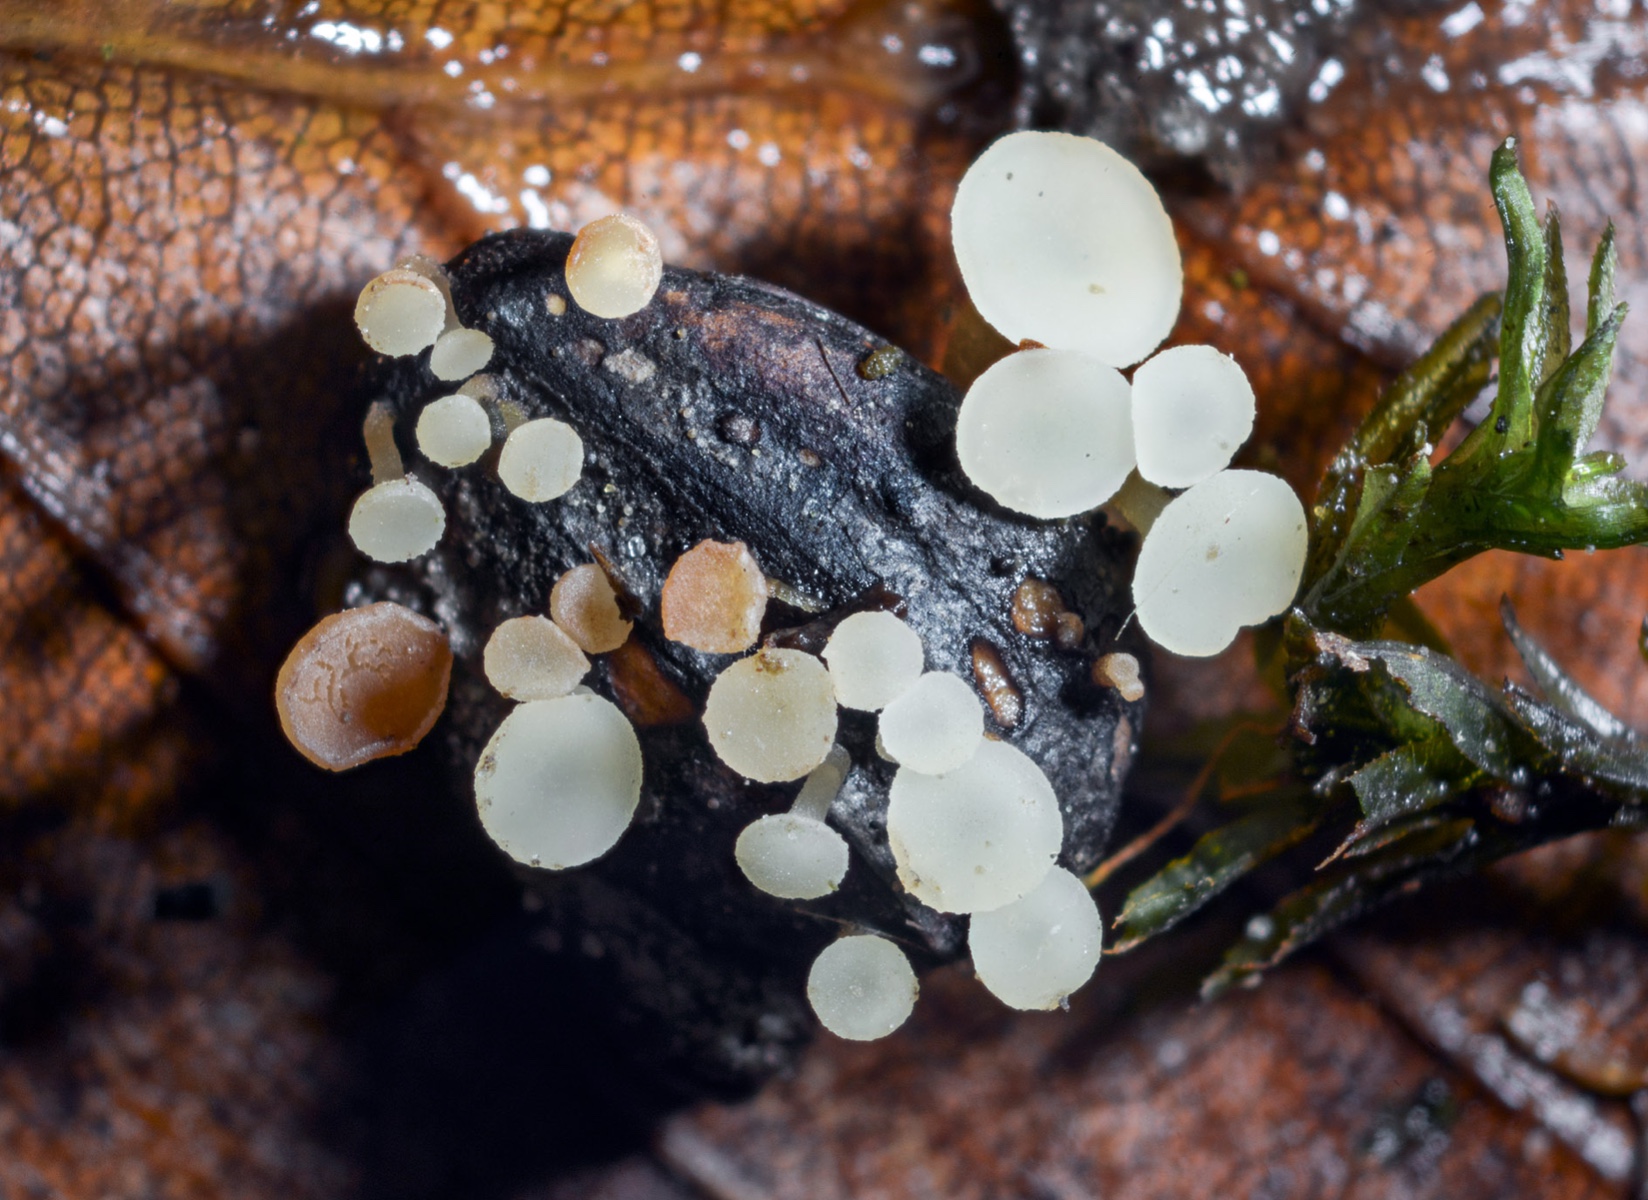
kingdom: Fungi
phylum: Ascomycota
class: Leotiomycetes
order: Helotiales
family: Helotiaceae
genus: Hymenoscyphus
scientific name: Hymenoscyphus carpini
